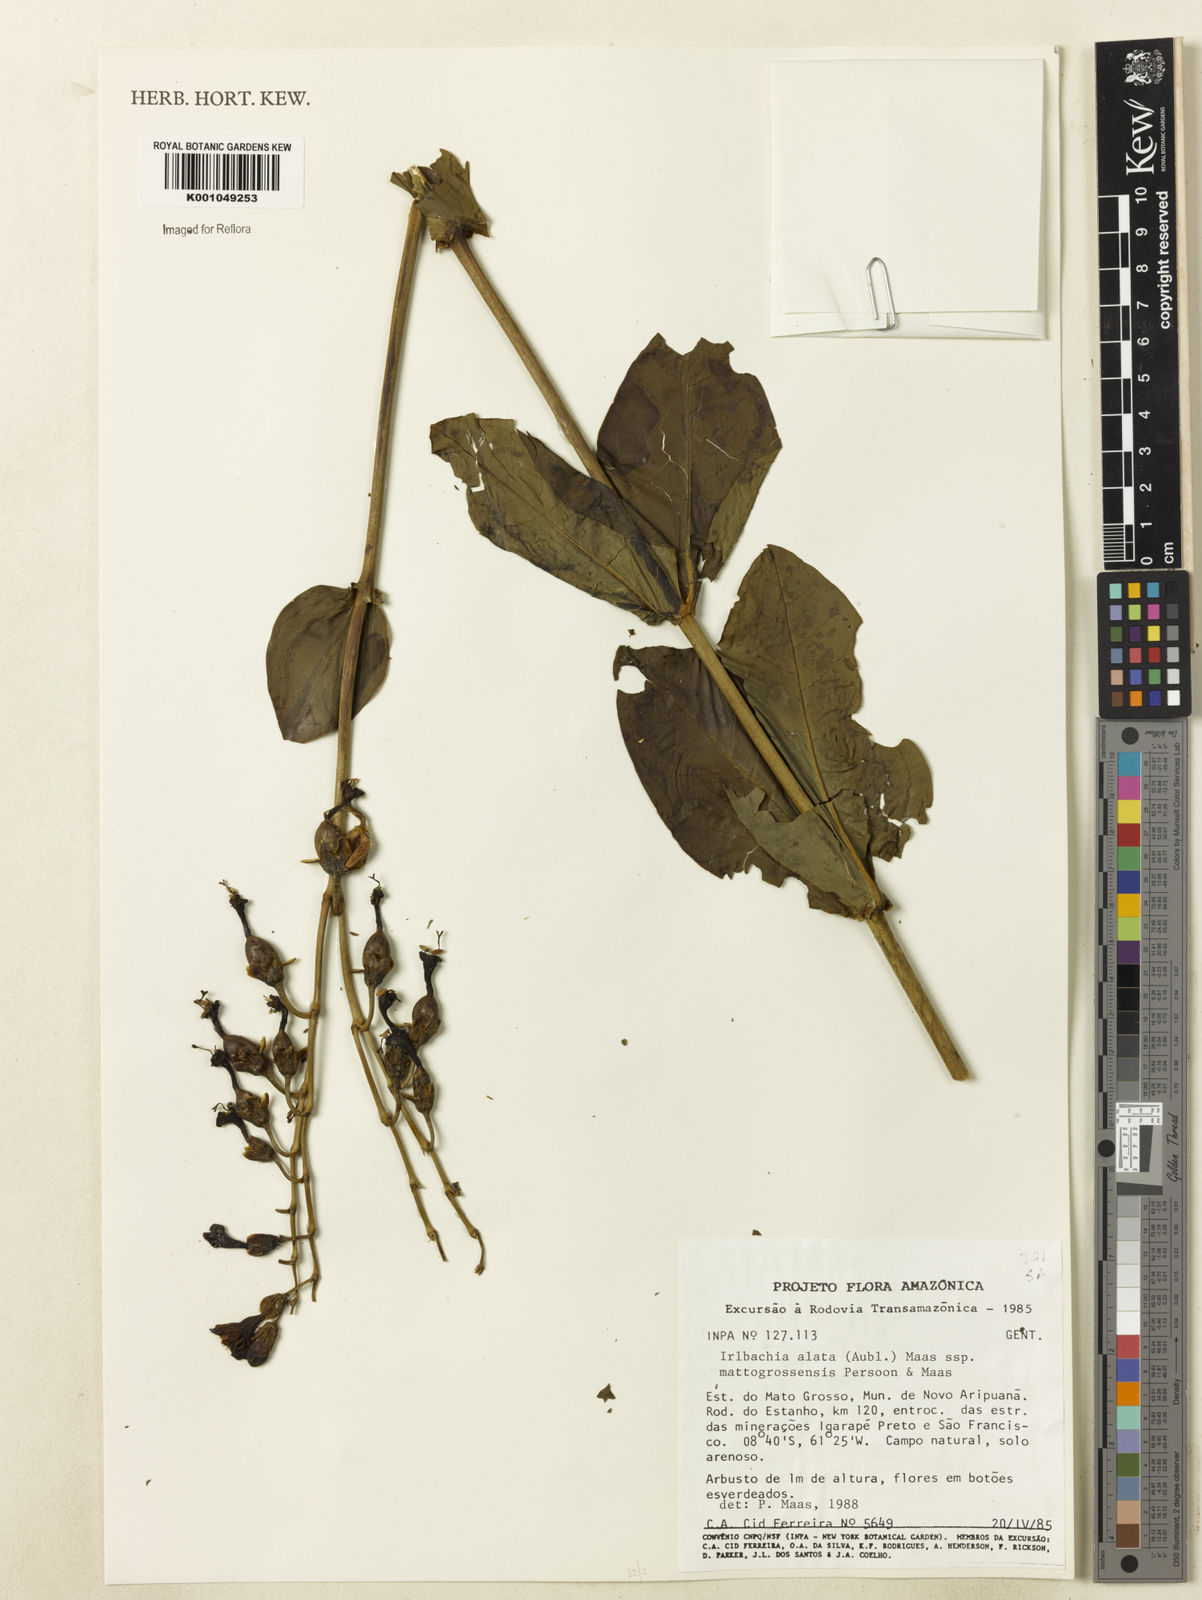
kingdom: Plantae
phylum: Tracheophyta
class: Magnoliopsida
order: Gentianales
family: Gentianaceae
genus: Chelonanthus
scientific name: Chelonanthus matogrossensis
